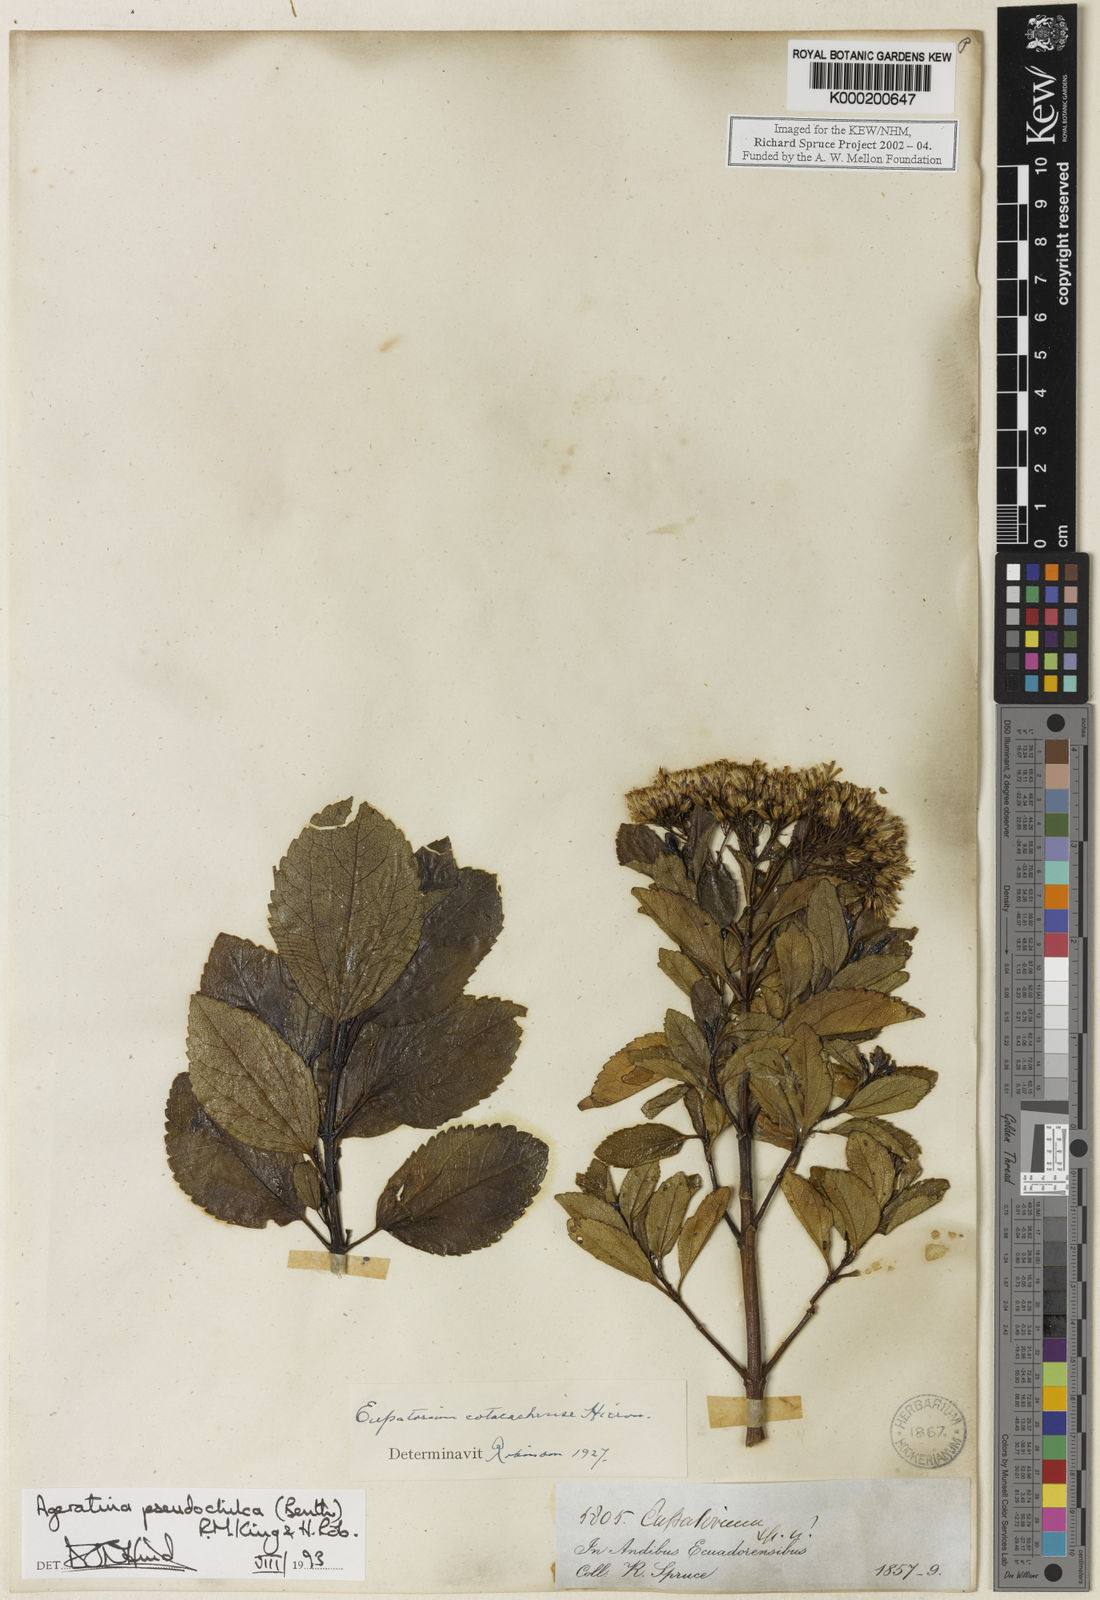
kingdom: Plantae
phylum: Tracheophyta
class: Magnoliopsida
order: Asterales
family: Asteraceae
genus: Ageratina
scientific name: Ageratina pseudochilca
